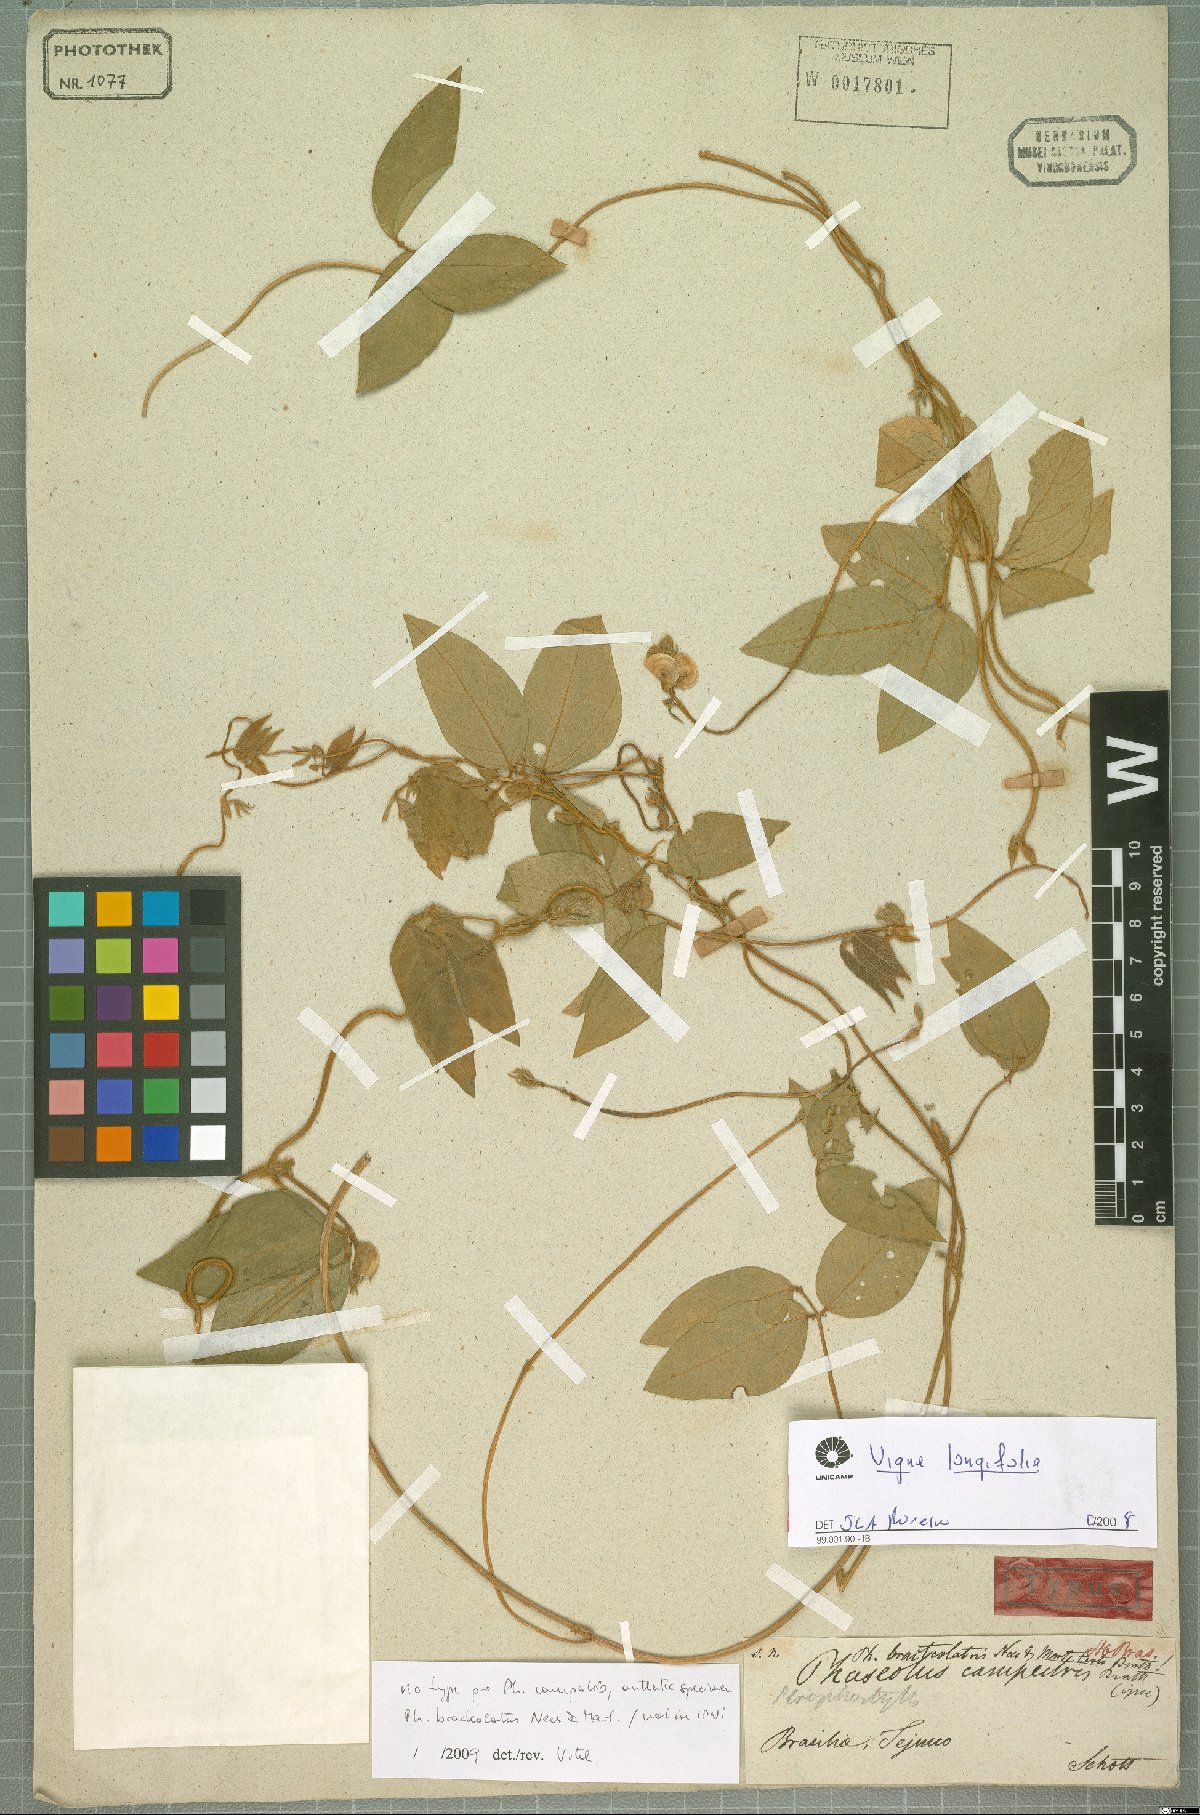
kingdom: Plantae
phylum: Tracheophyta
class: Magnoliopsida
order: Fabales
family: Fabaceae
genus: Vigna
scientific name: Vigna longifolia
